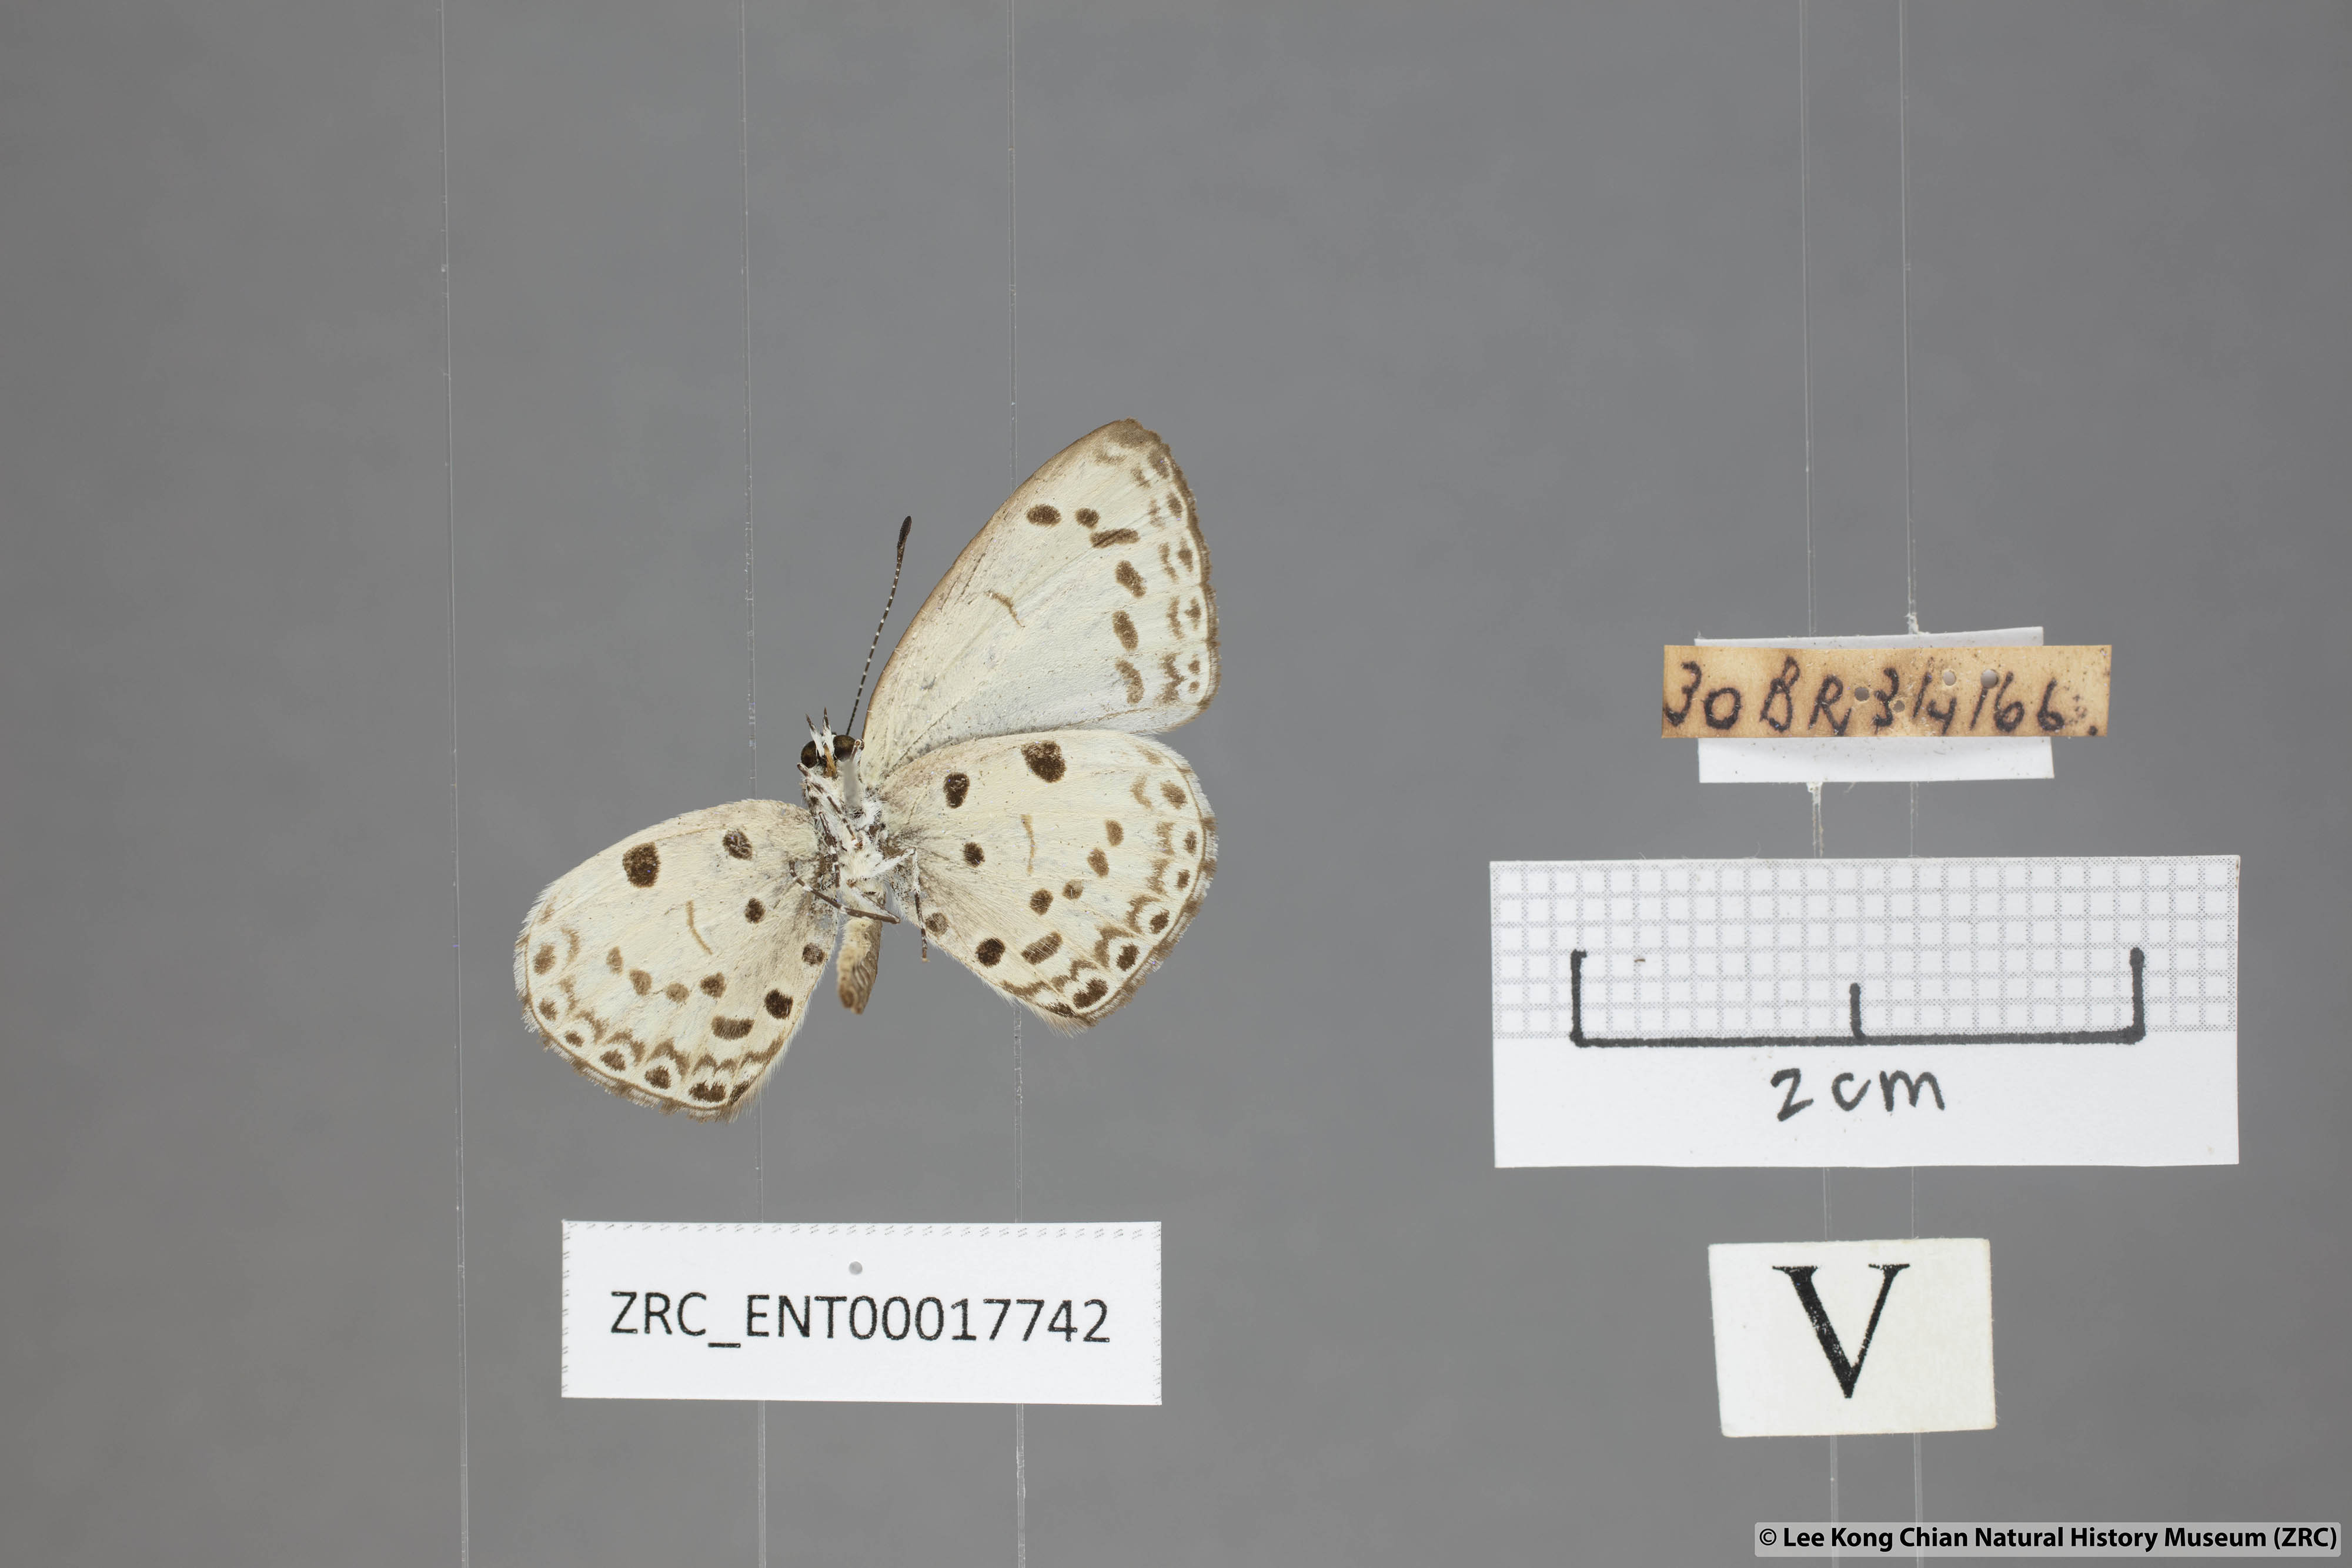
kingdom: Animalia
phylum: Arthropoda
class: Insecta
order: Lepidoptera
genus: Plautella
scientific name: Plautella
